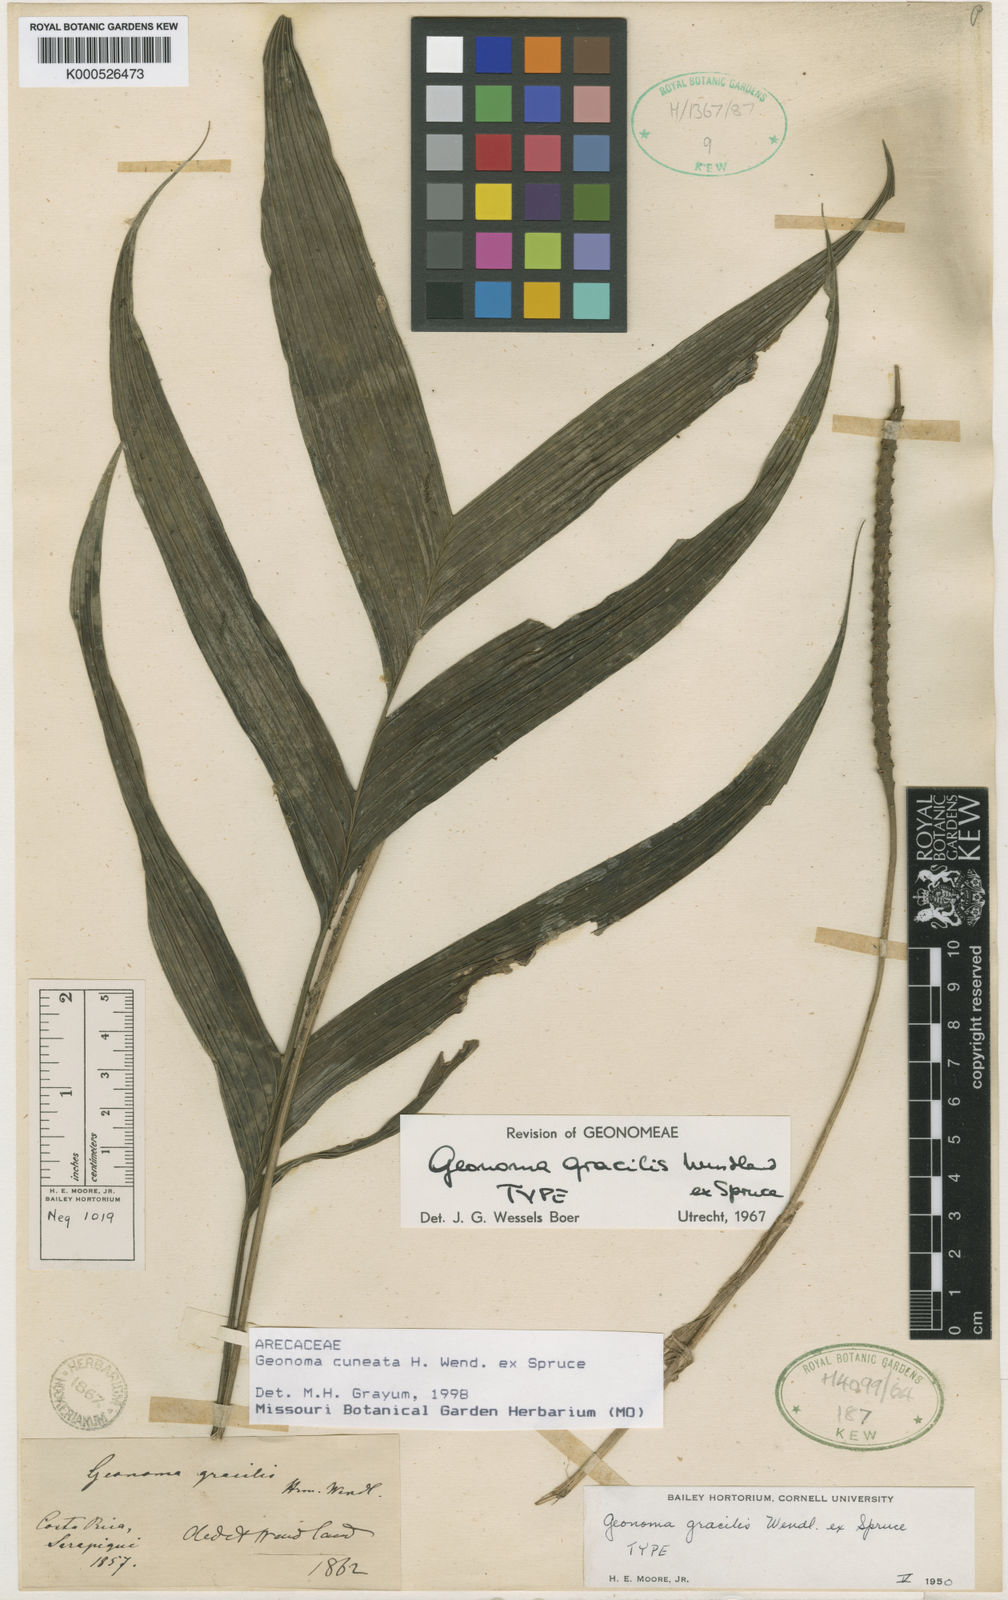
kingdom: Plantae
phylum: Tracheophyta
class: Liliopsida
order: Arecales
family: Arecaceae
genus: Geonoma
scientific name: Geonoma cuneata
